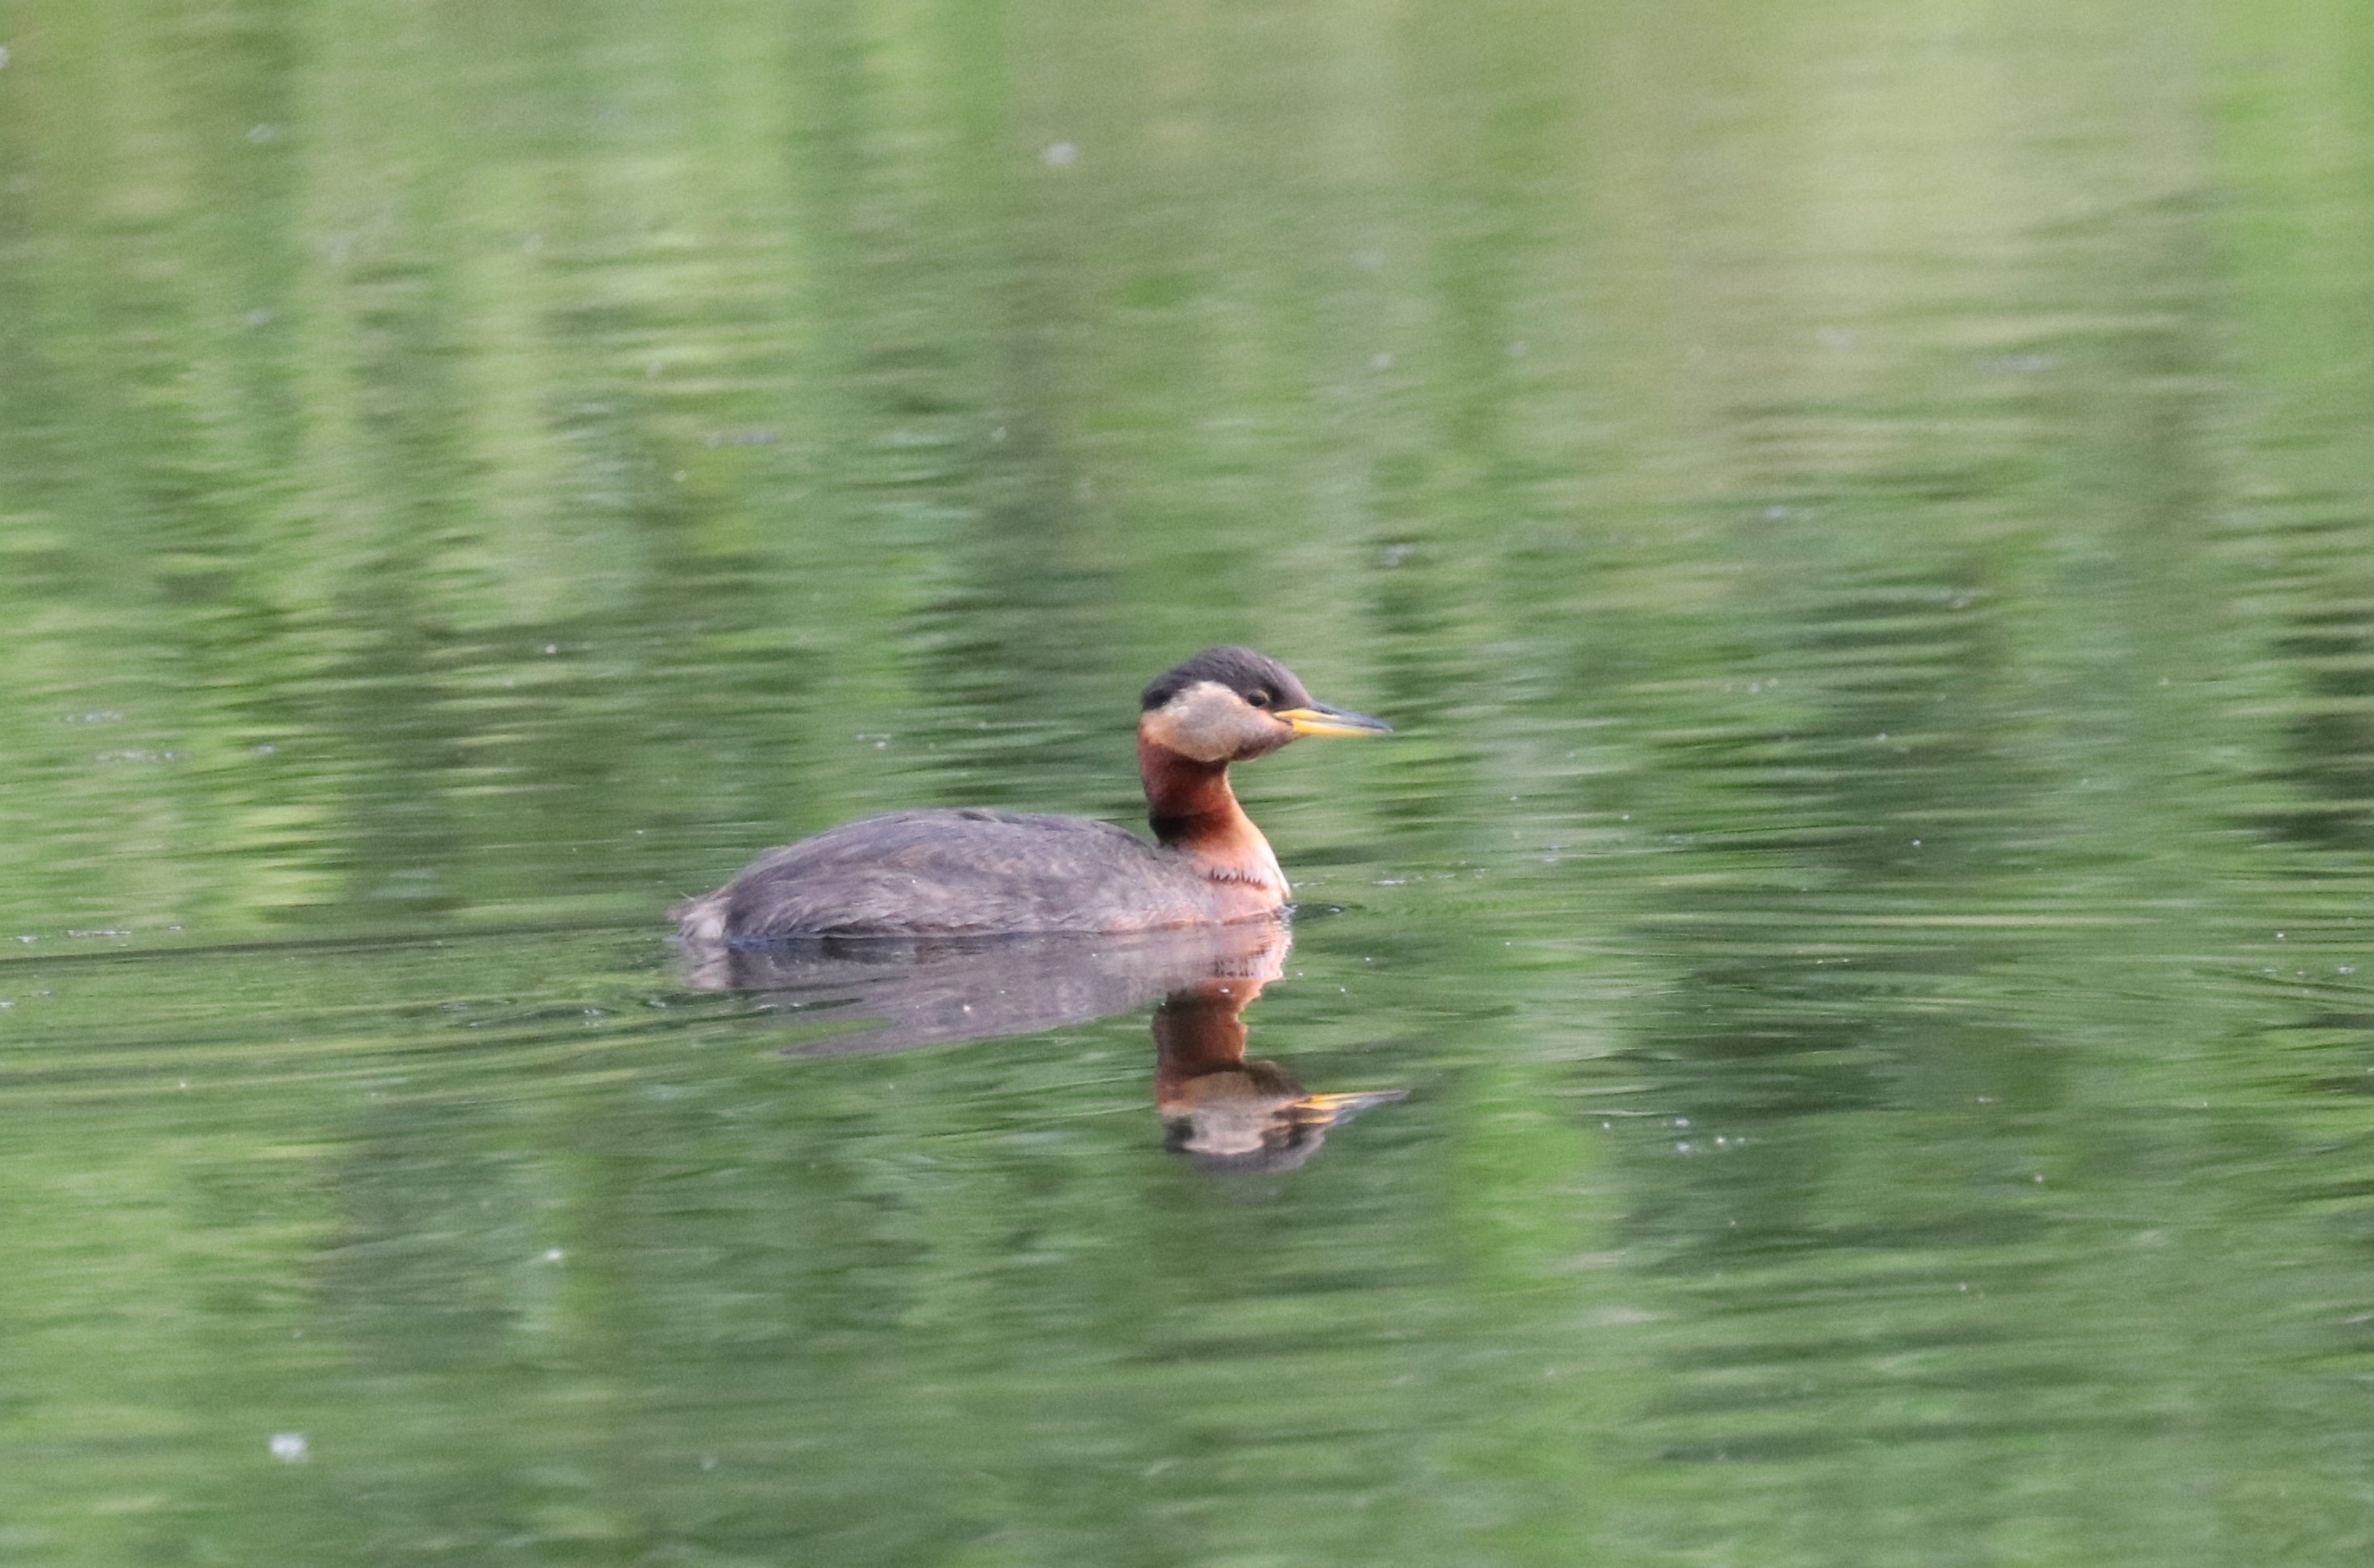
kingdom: Animalia
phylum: Chordata
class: Aves
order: Podicipediformes
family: Podicipedidae
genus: Podiceps
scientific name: Podiceps grisegena
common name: Gråstrubet lappedykker
